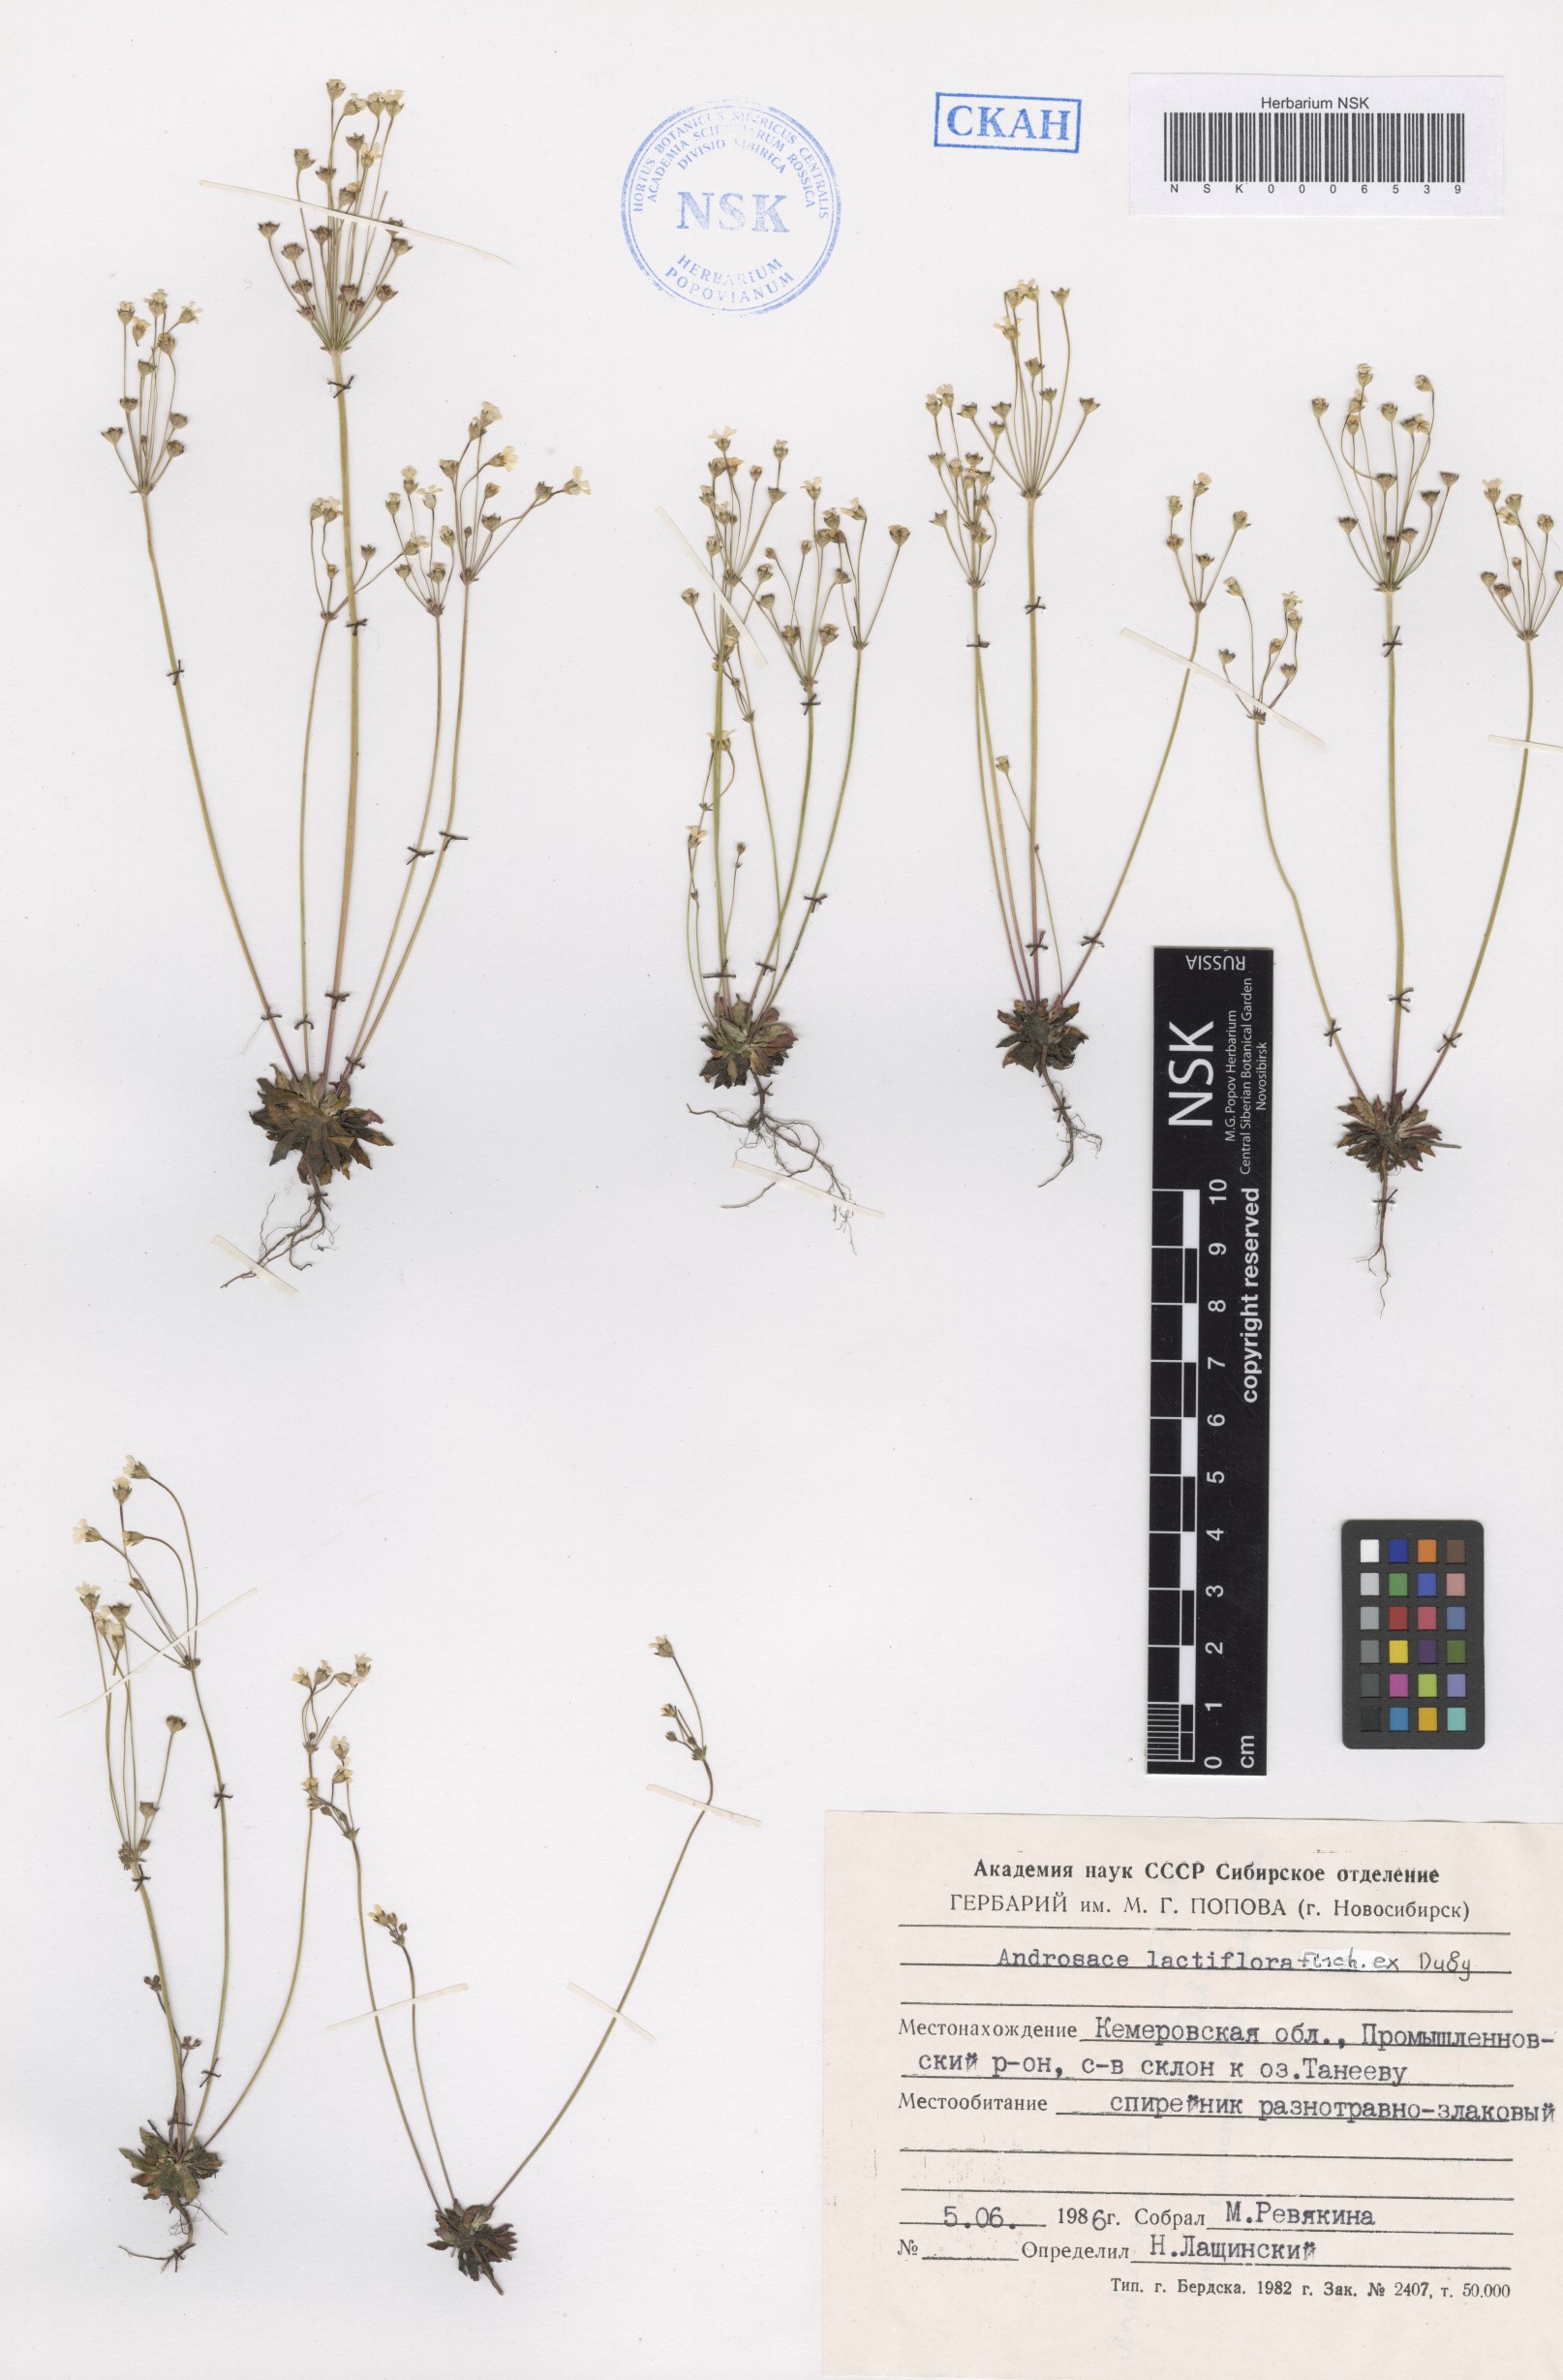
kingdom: Plantae
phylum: Tracheophyta
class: Magnoliopsida
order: Ericales
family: Primulaceae
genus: Androsace
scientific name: Androsace lactiflora
